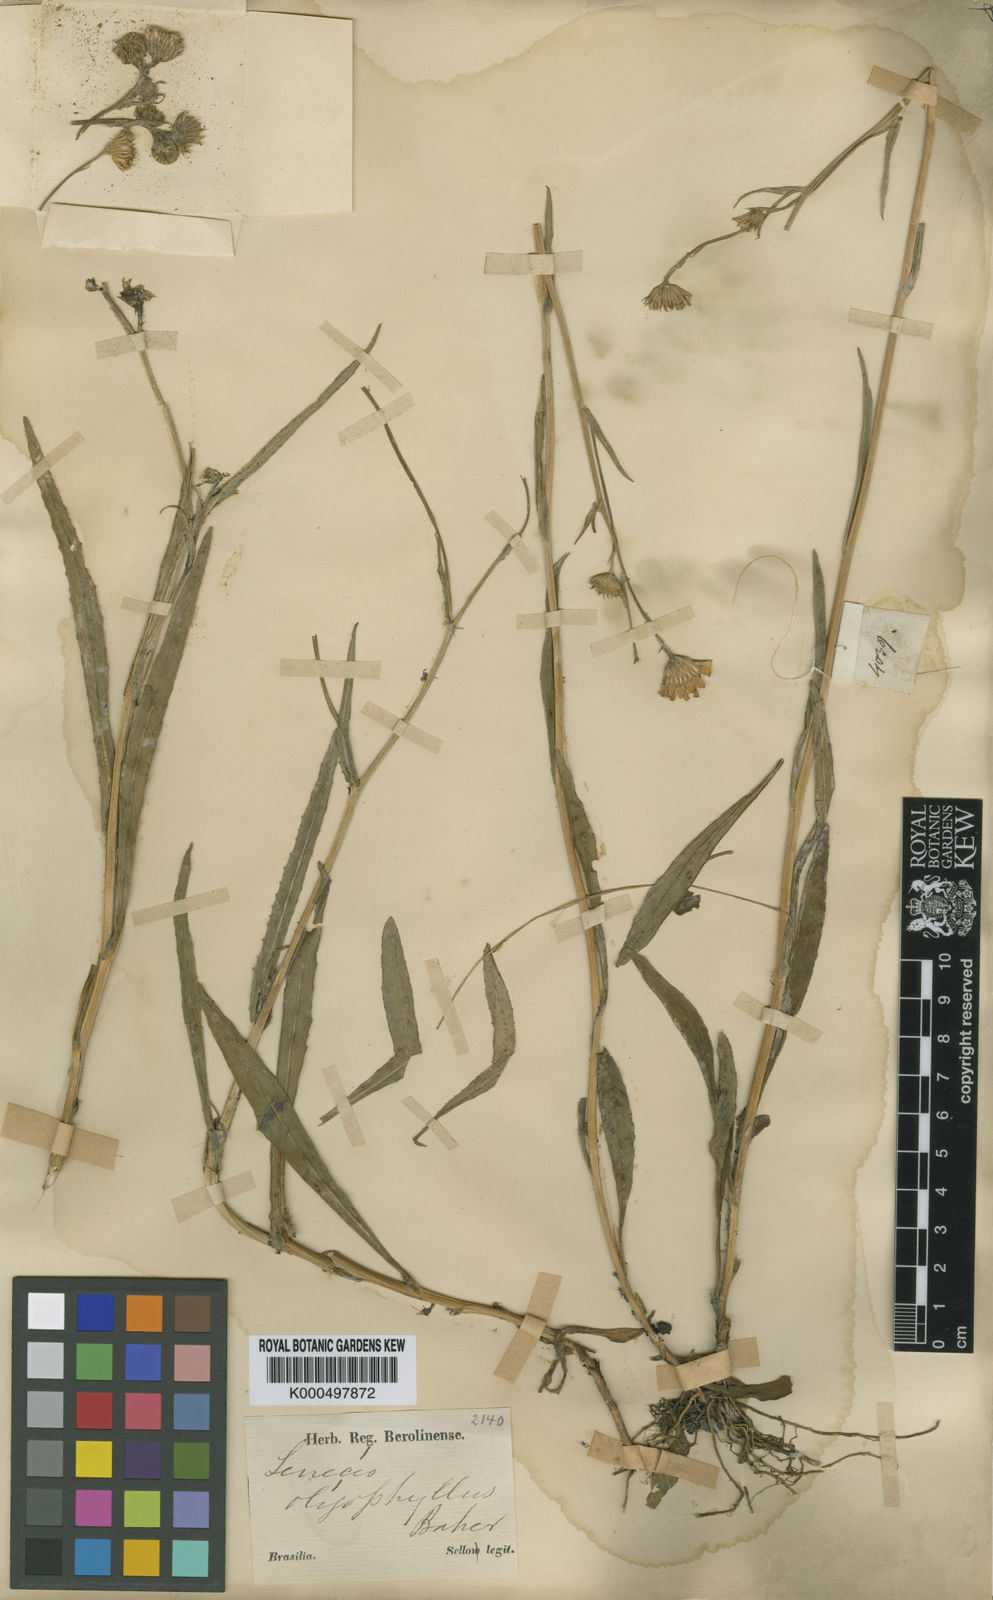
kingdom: Plantae
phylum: Tracheophyta
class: Magnoliopsida
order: Asterales
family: Asteraceae
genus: Senecio
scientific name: Senecio oligophyllus
